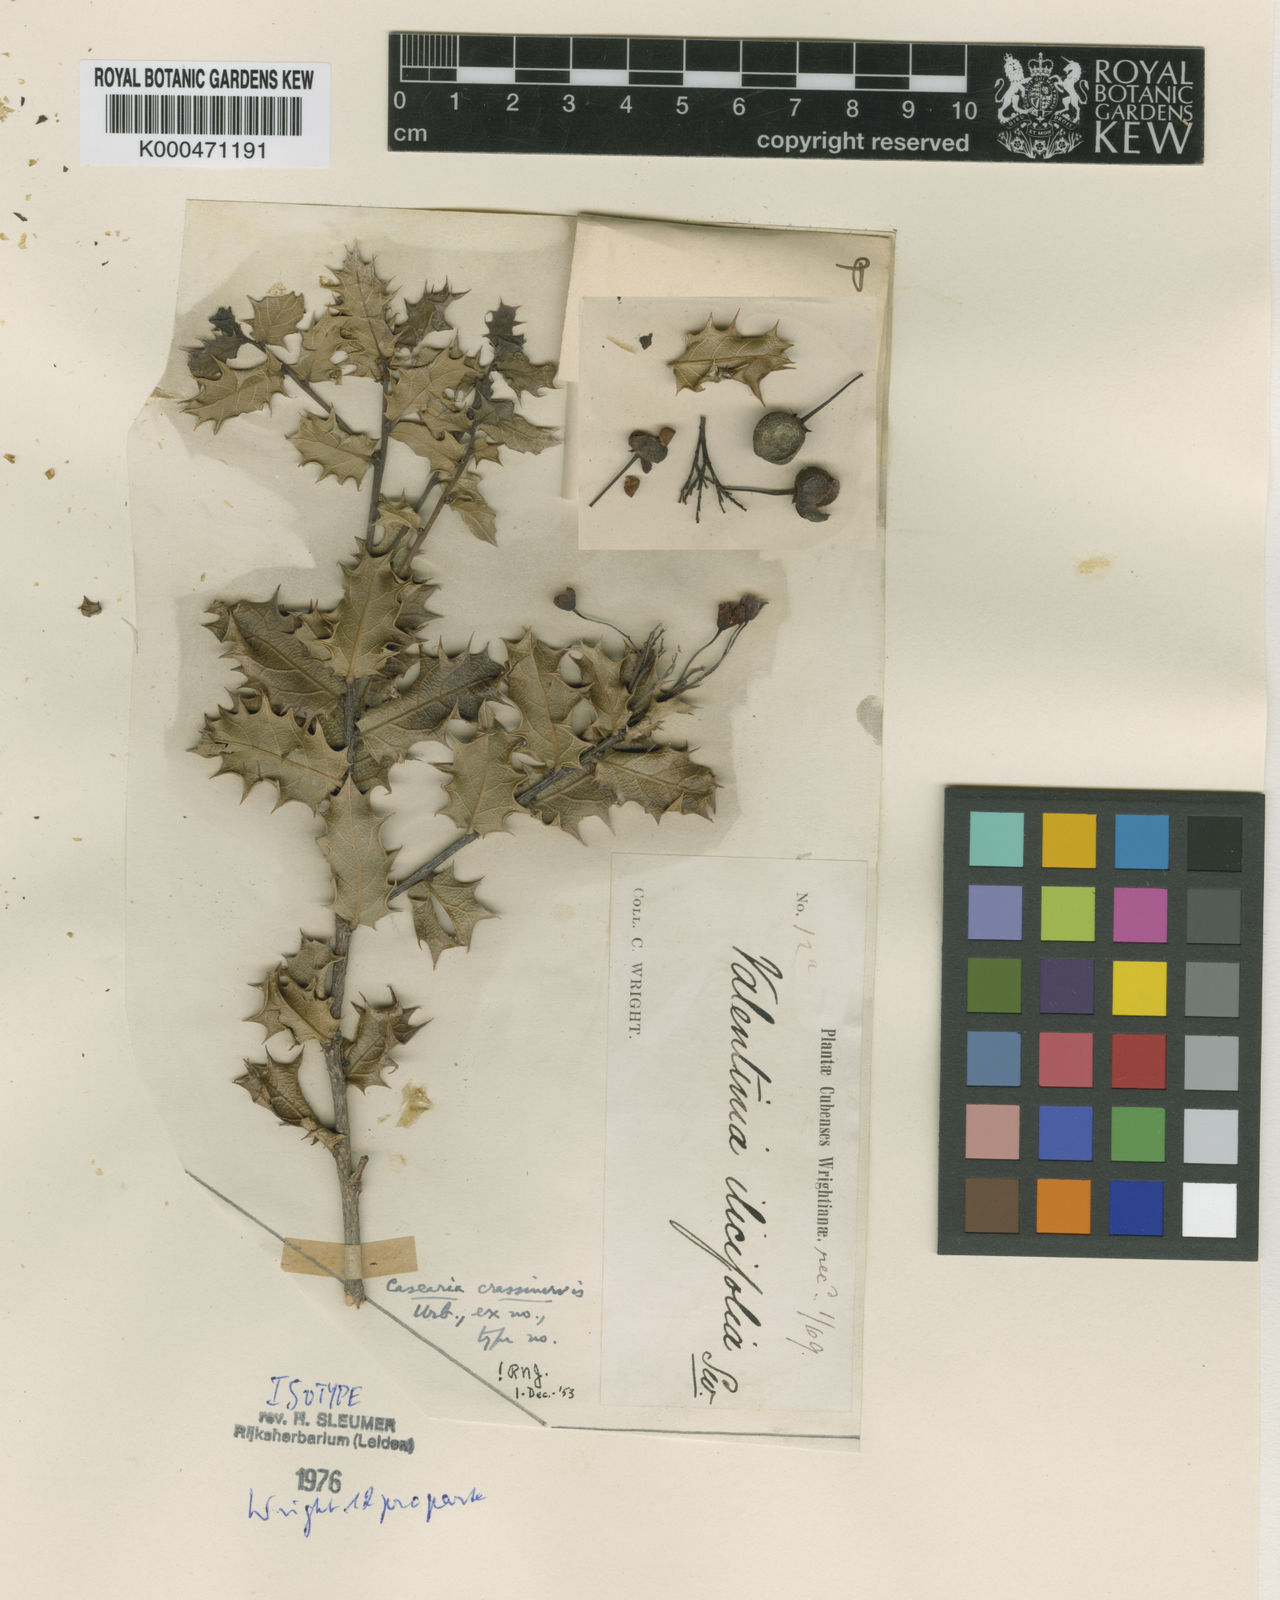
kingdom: Plantae
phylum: Tracheophyta
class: Magnoliopsida
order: Malpighiales
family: Salicaceae
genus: Casearia
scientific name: Casearia crassinervis
